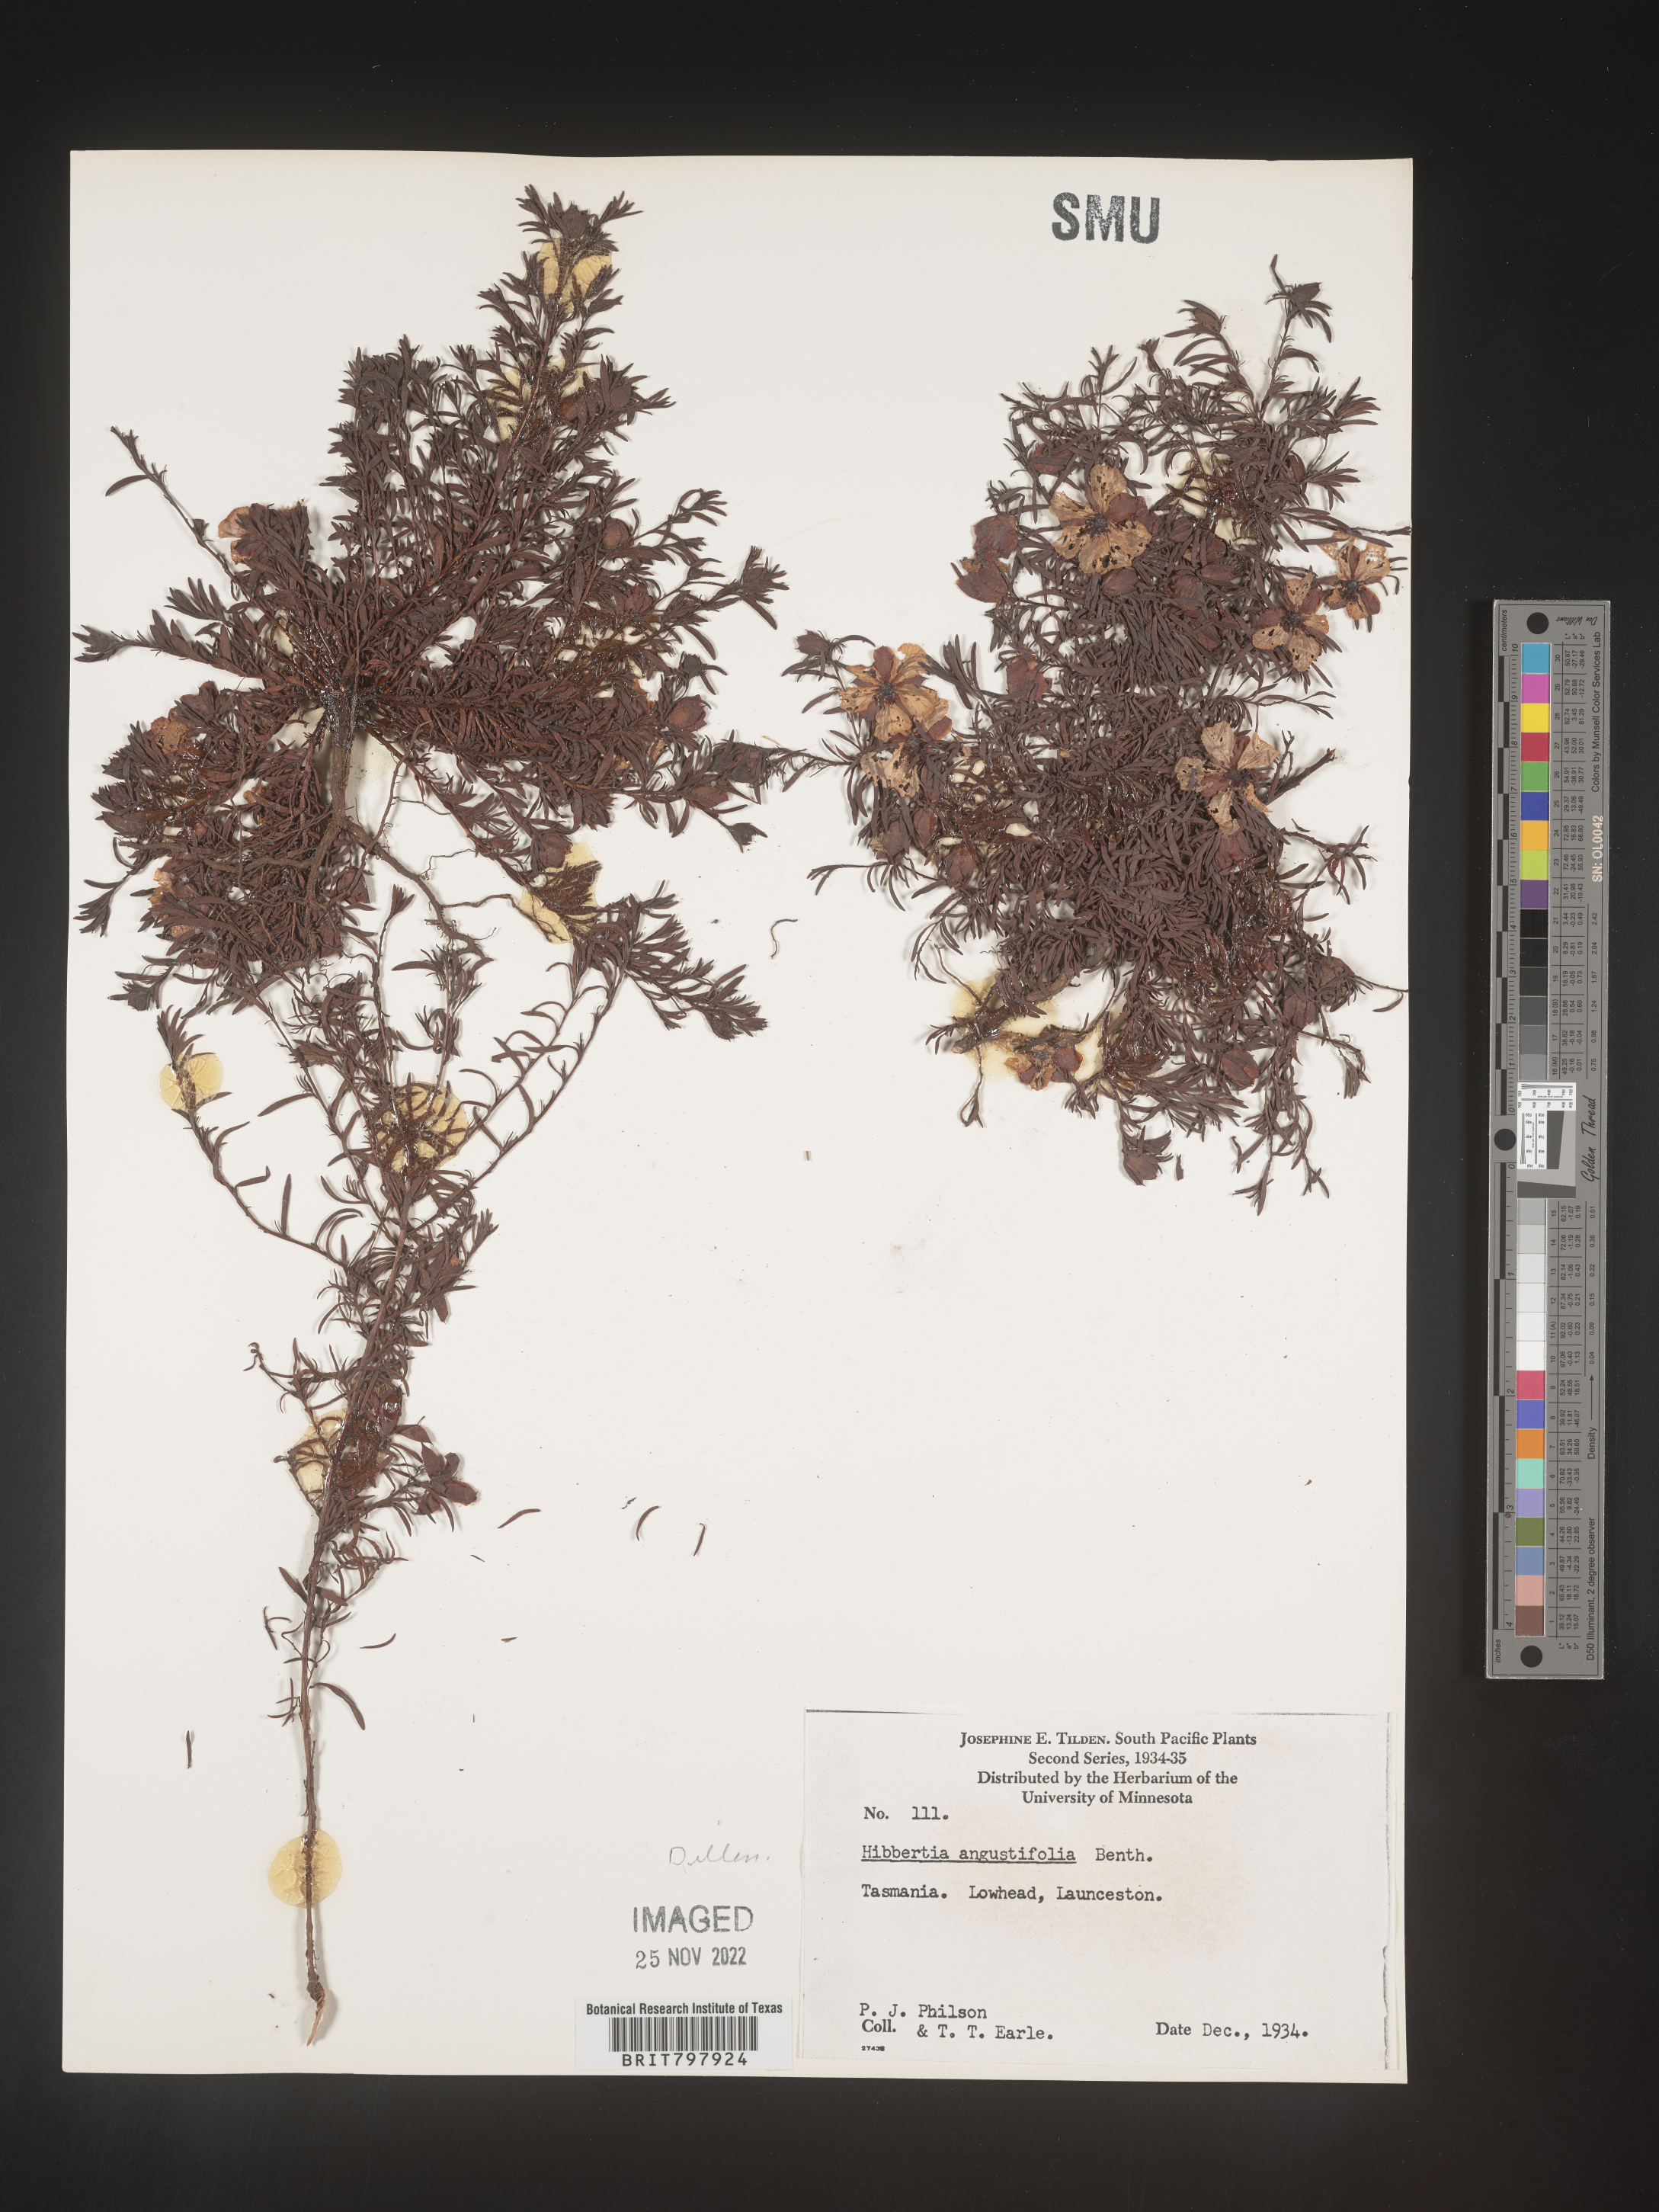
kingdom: Plantae
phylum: Tracheophyta
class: Magnoliopsida
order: Dilleniales
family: Dilleniaceae
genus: Hibbertia
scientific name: Hibbertia
